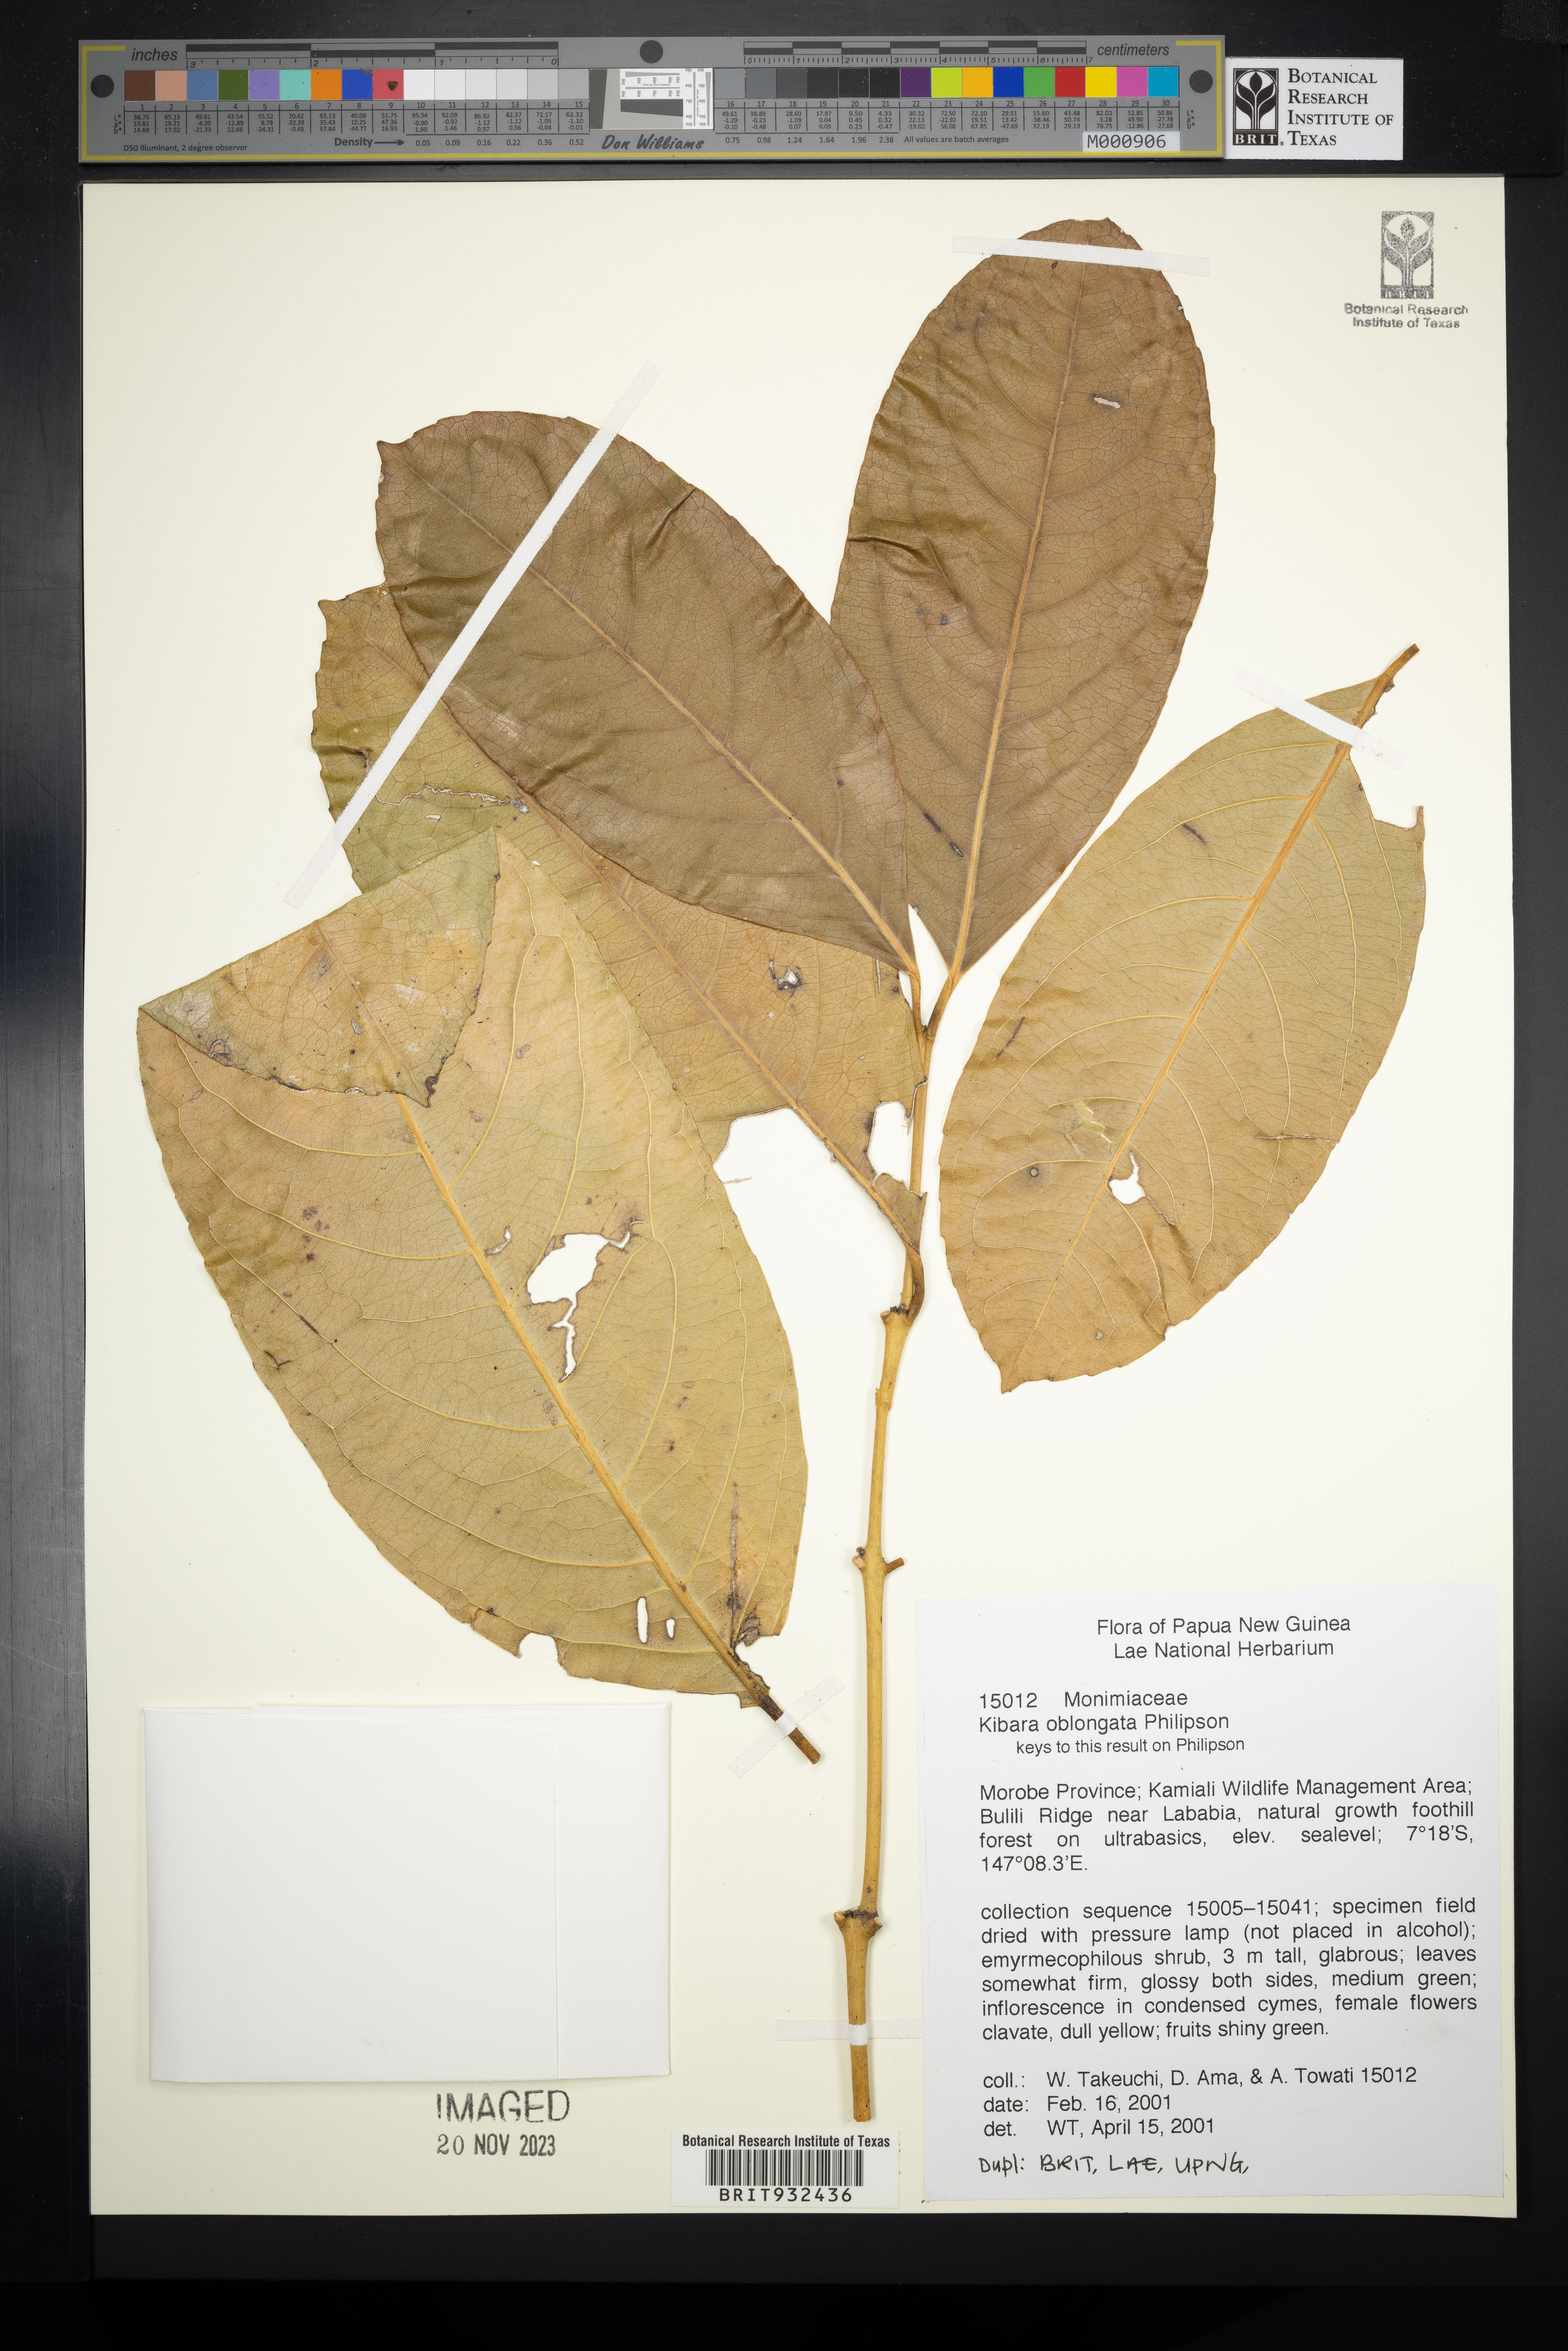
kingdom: Plantae
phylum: Tracheophyta
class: Magnoliopsida
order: Laurales
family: Monimiaceae
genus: Kibara
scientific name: Kibara
